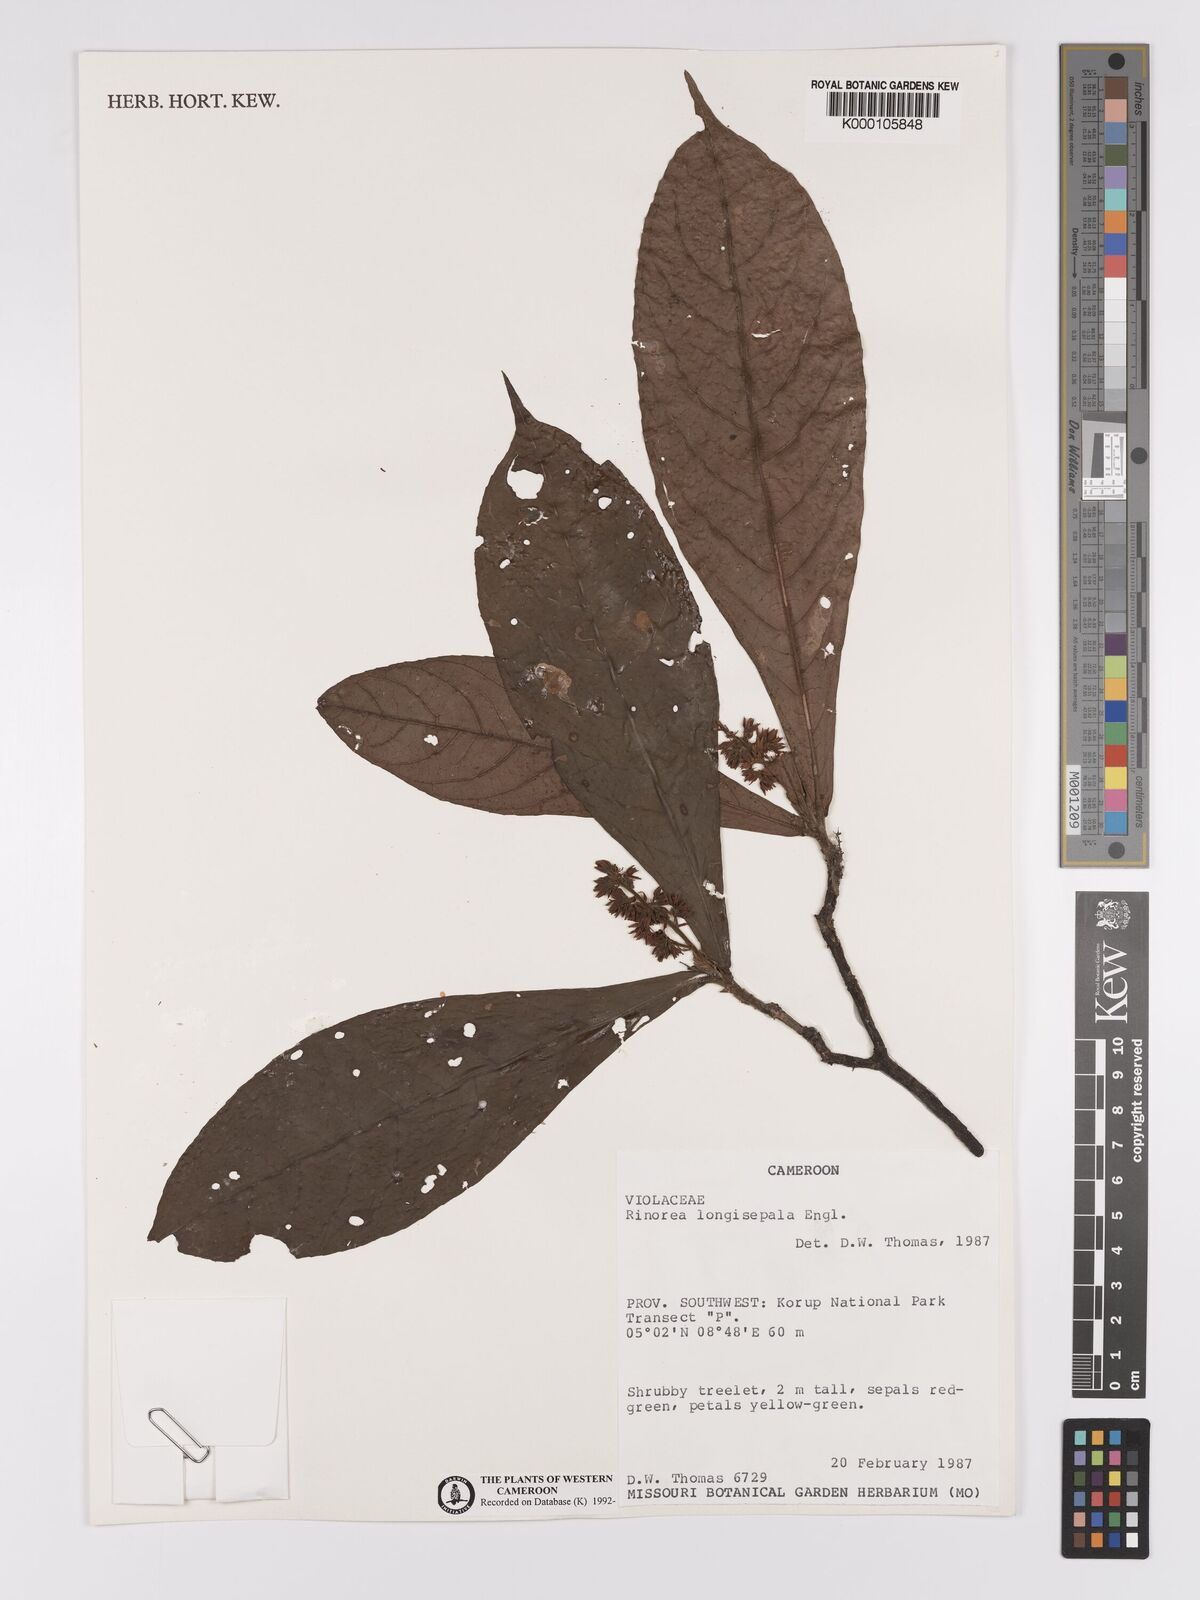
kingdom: Plantae
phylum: Tracheophyta
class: Magnoliopsida
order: Malpighiales
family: Violaceae
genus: Rinorea
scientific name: Rinorea longisepala
